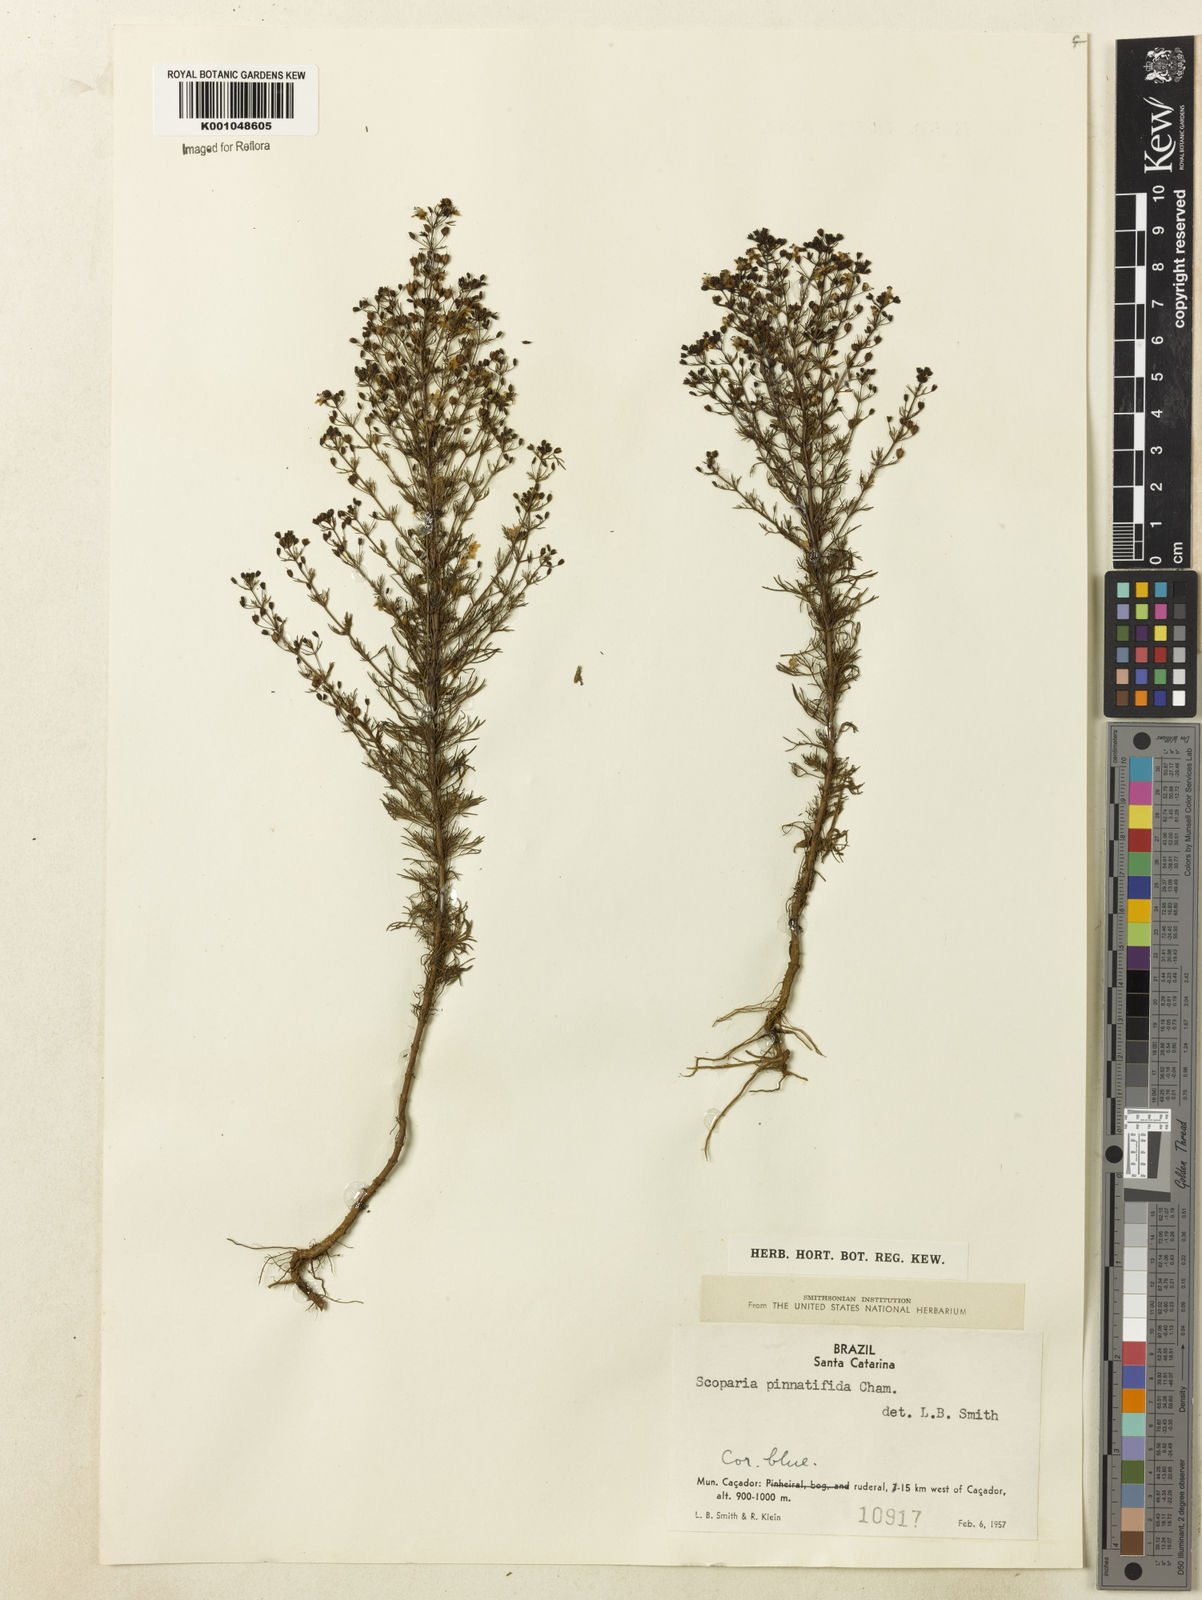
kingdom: Plantae
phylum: Tracheophyta
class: Magnoliopsida
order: Lamiales
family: Plantaginaceae
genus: Scoparia
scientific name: Scoparia
